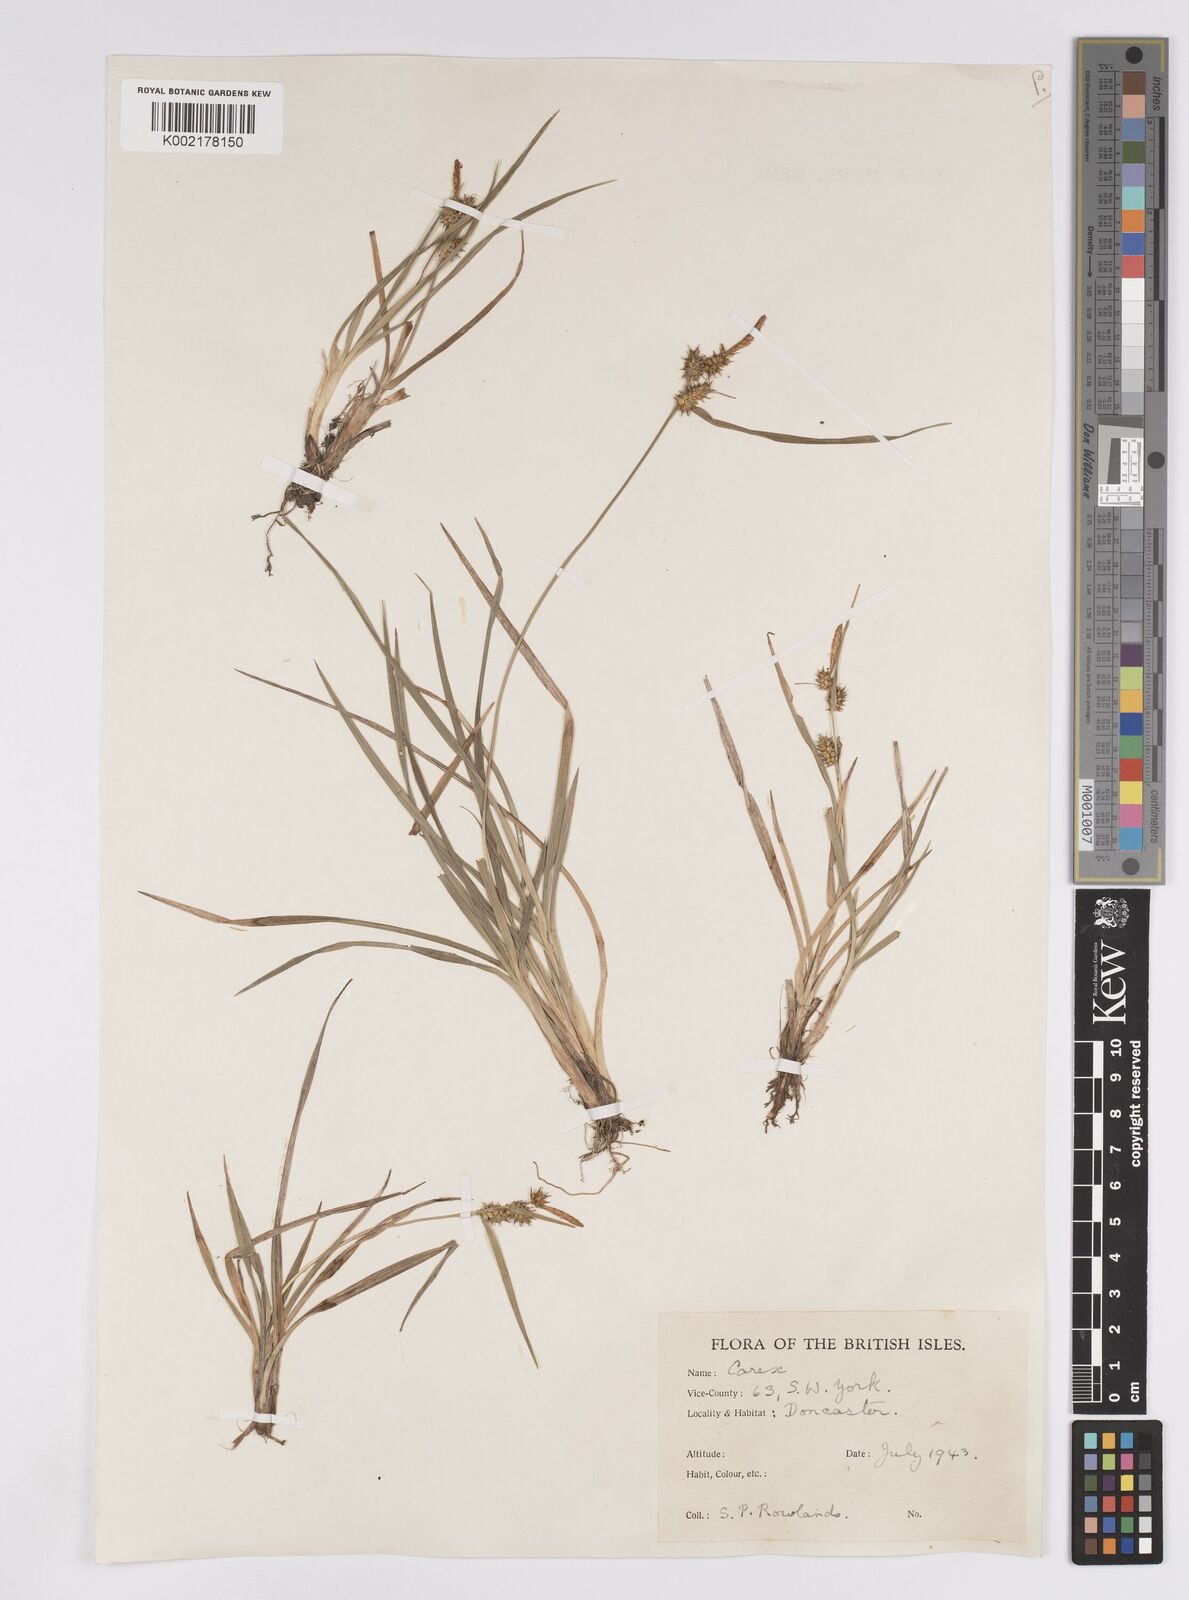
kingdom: Plantae
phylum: Tracheophyta
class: Liliopsida
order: Poales
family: Cyperaceae
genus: Carex
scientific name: Carex demissa
